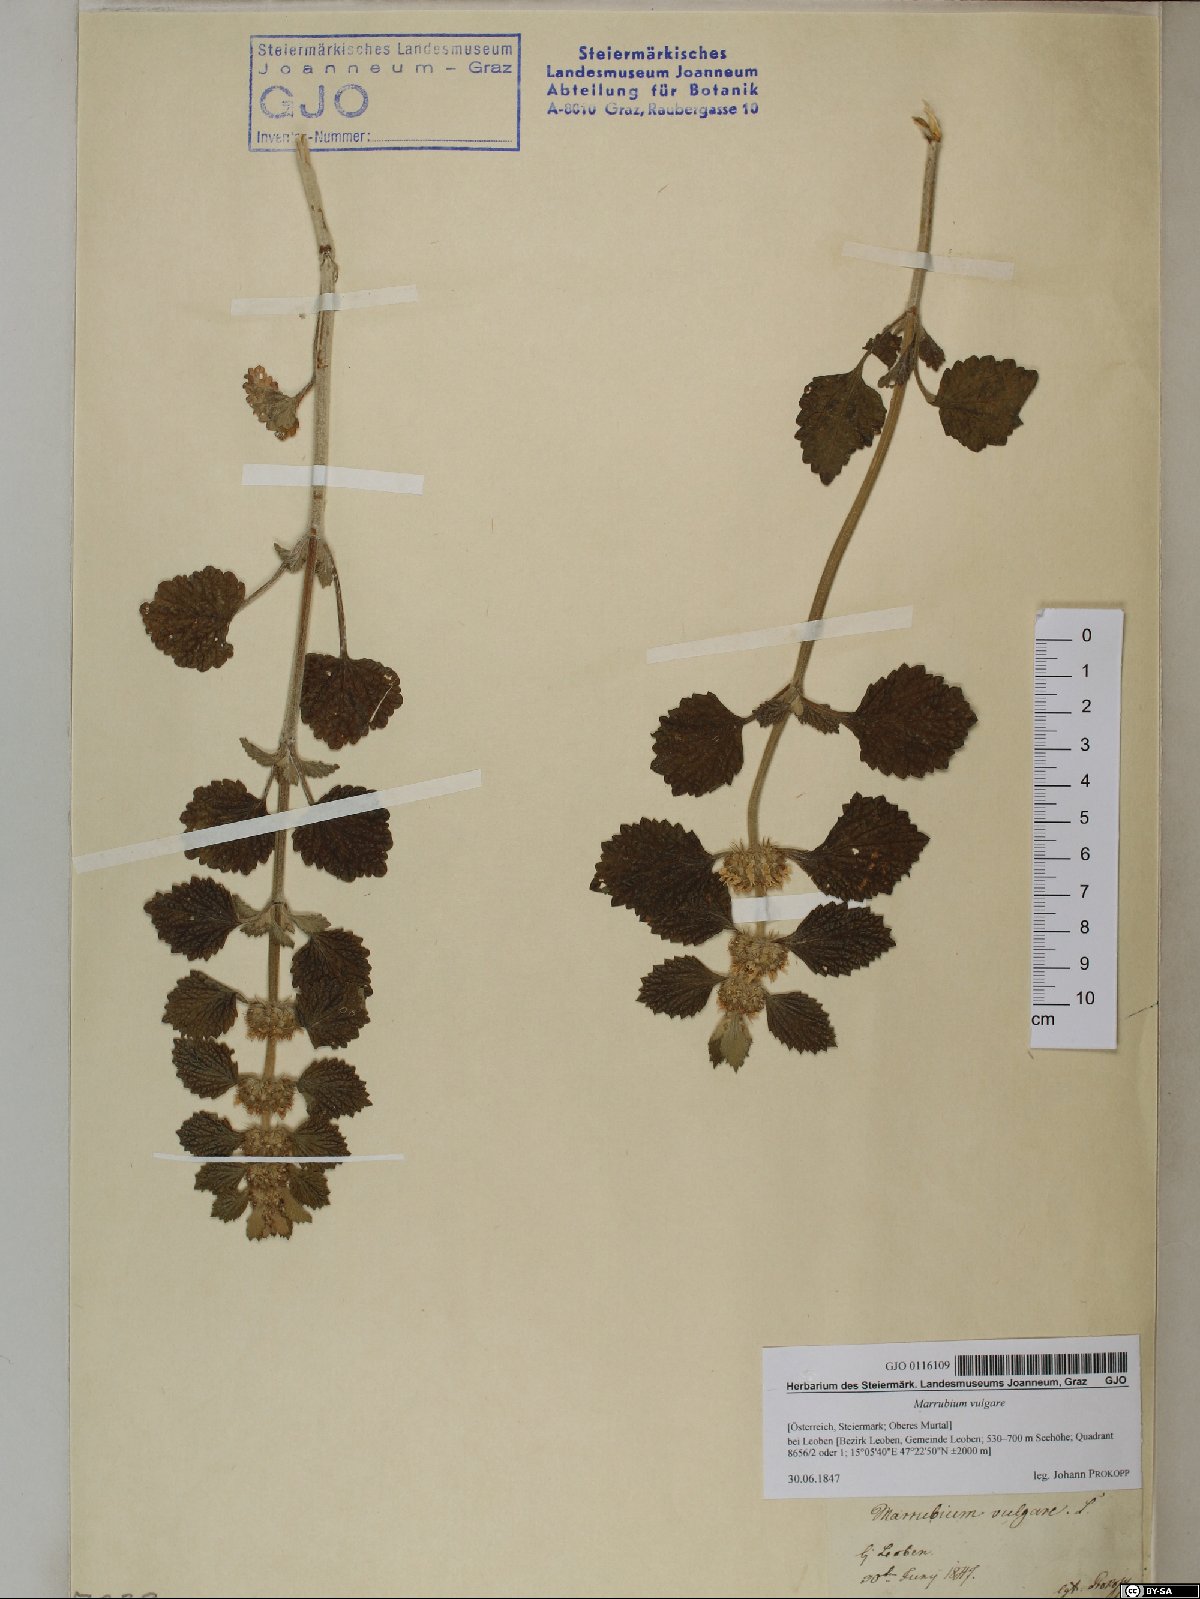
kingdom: Plantae
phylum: Tracheophyta
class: Magnoliopsida
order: Lamiales
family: Lamiaceae
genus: Marrubium
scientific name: Marrubium vulgare
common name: Horehound
